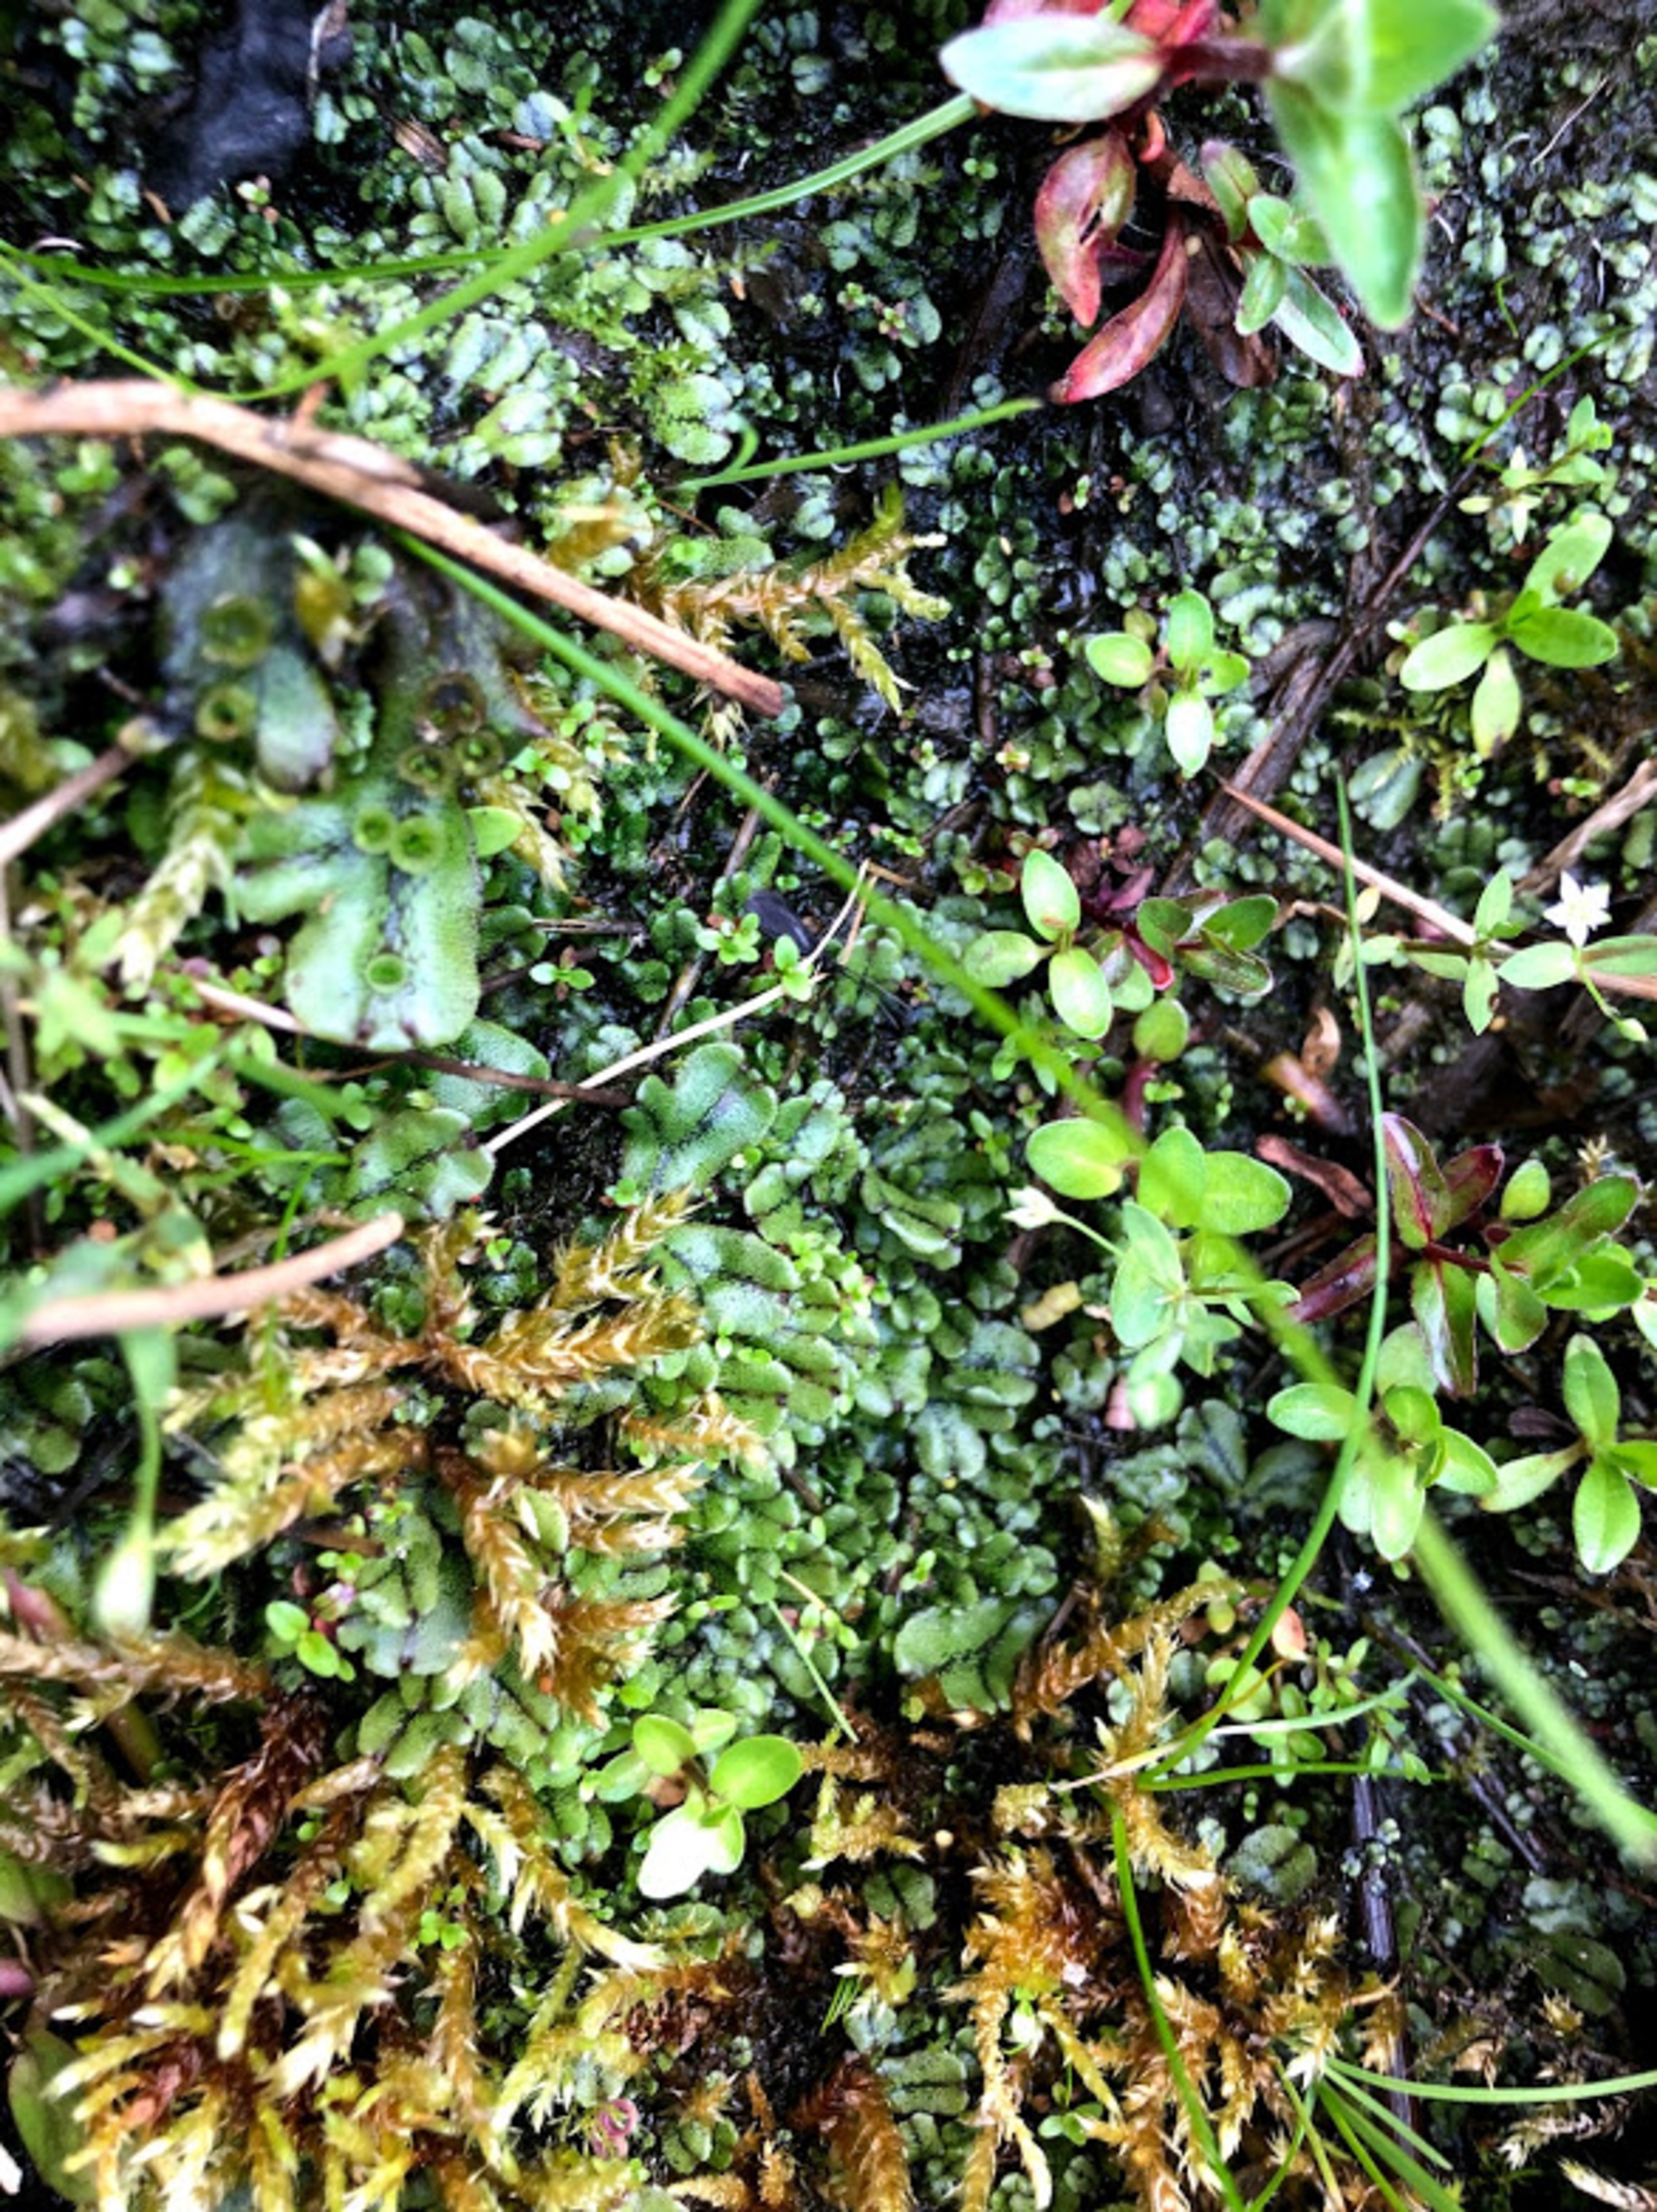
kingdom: Plantae
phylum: Marchantiophyta
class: Marchantiopsida
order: Marchantiales
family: Marchantiaceae
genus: Marchantia
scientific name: Marchantia polymorpha
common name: Mose-lungemos
